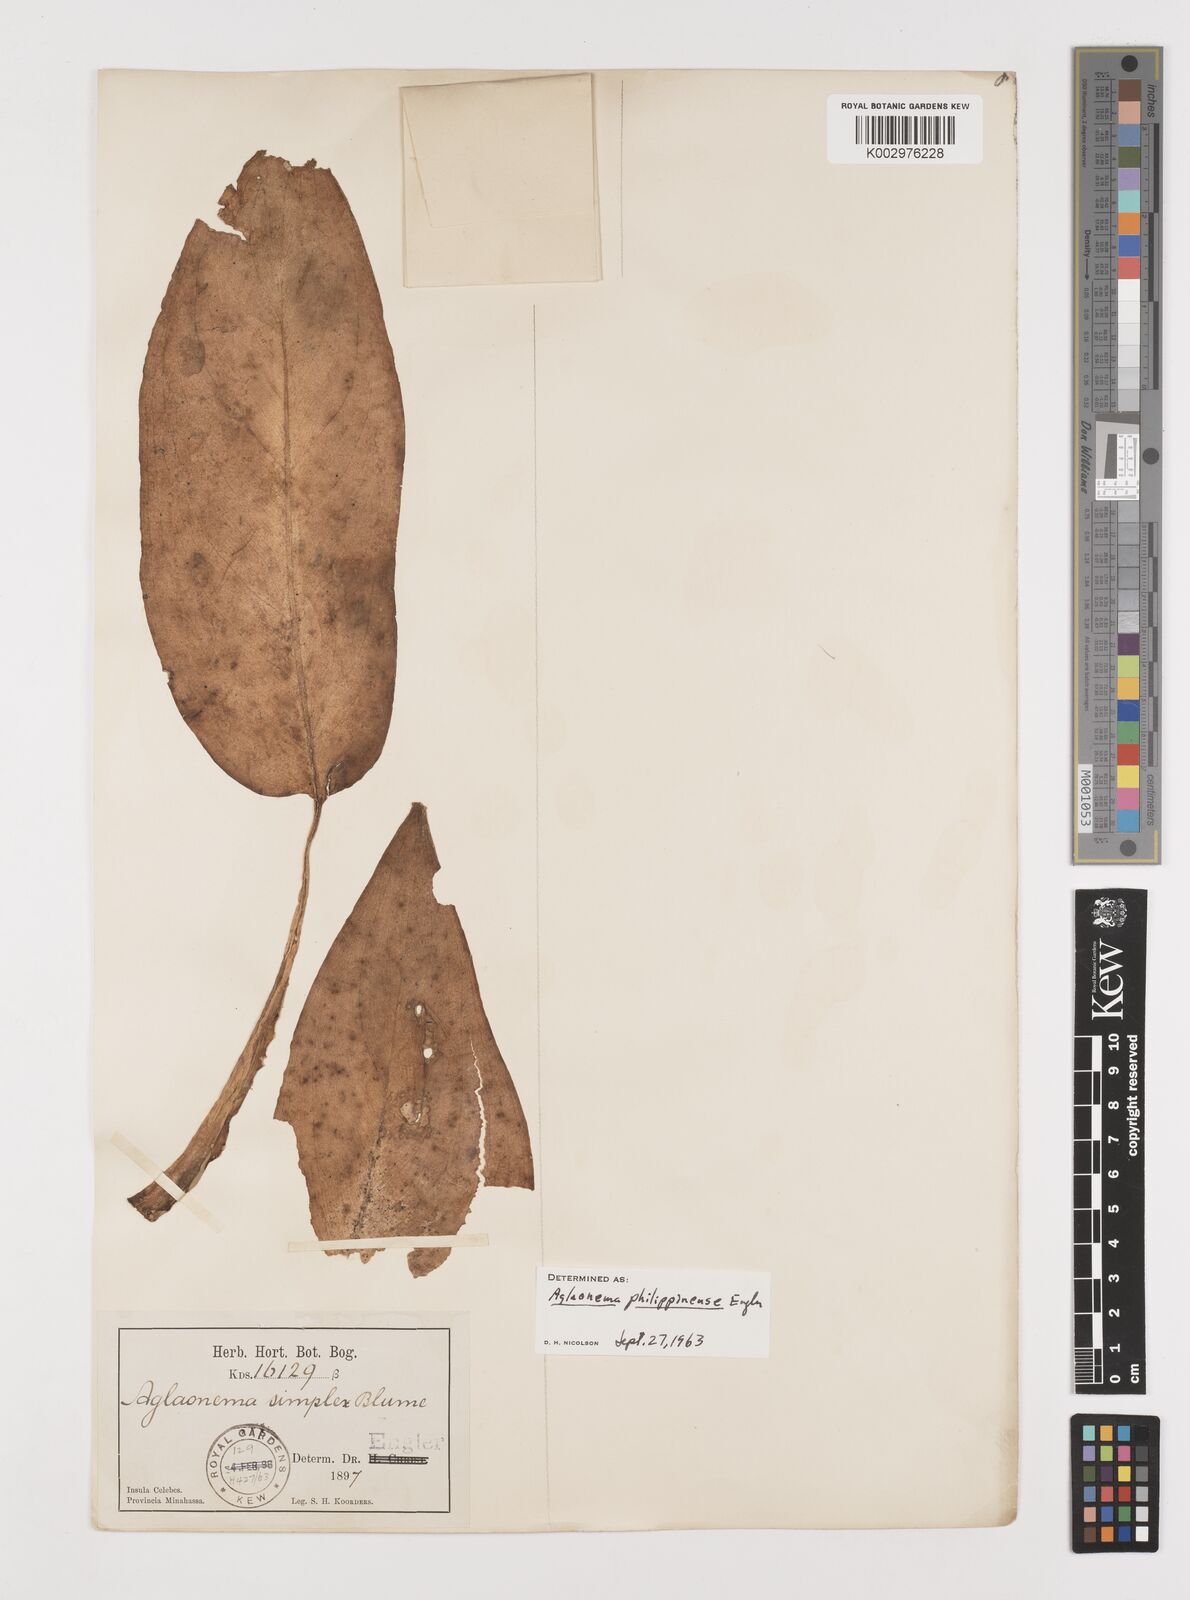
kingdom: Plantae
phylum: Tracheophyta
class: Liliopsida
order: Alismatales
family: Araceae
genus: Aglaonema
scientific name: Aglaonema philippinense
